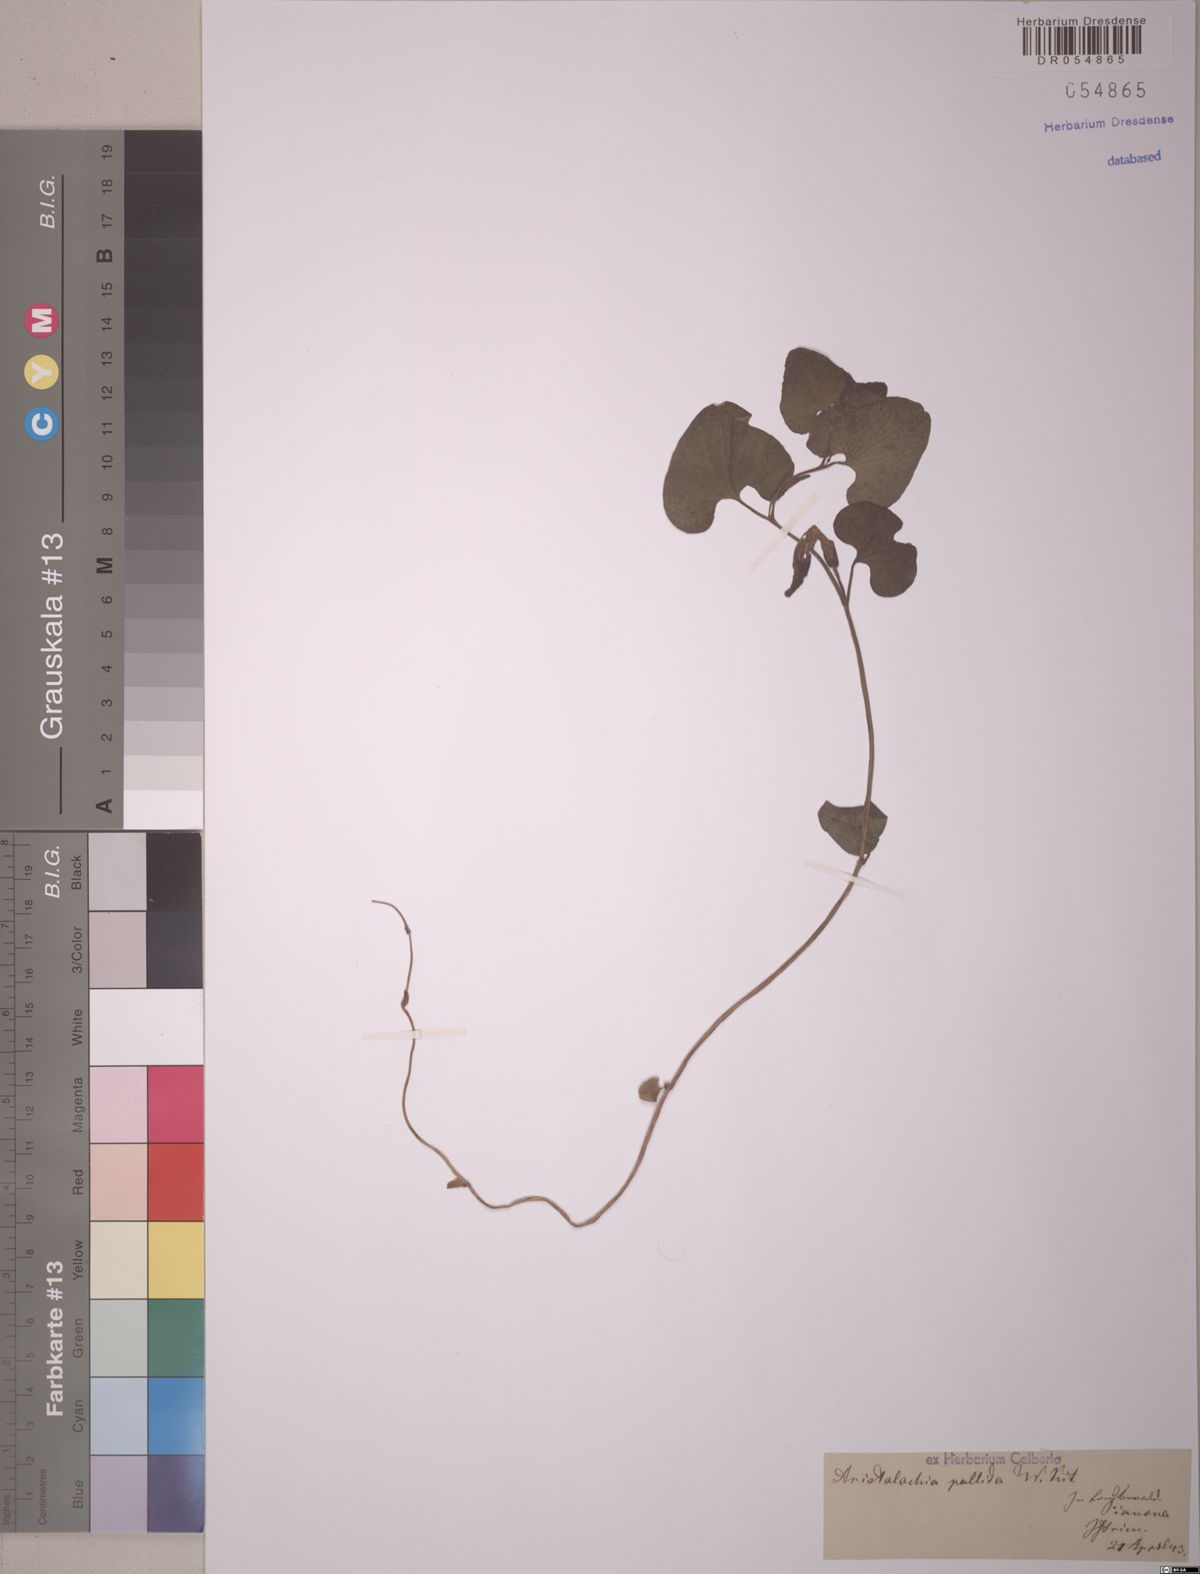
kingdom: Plantae
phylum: Tracheophyta
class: Magnoliopsida
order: Piperales
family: Aristolochiaceae
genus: Aristolochia
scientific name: Aristolochia pallida
